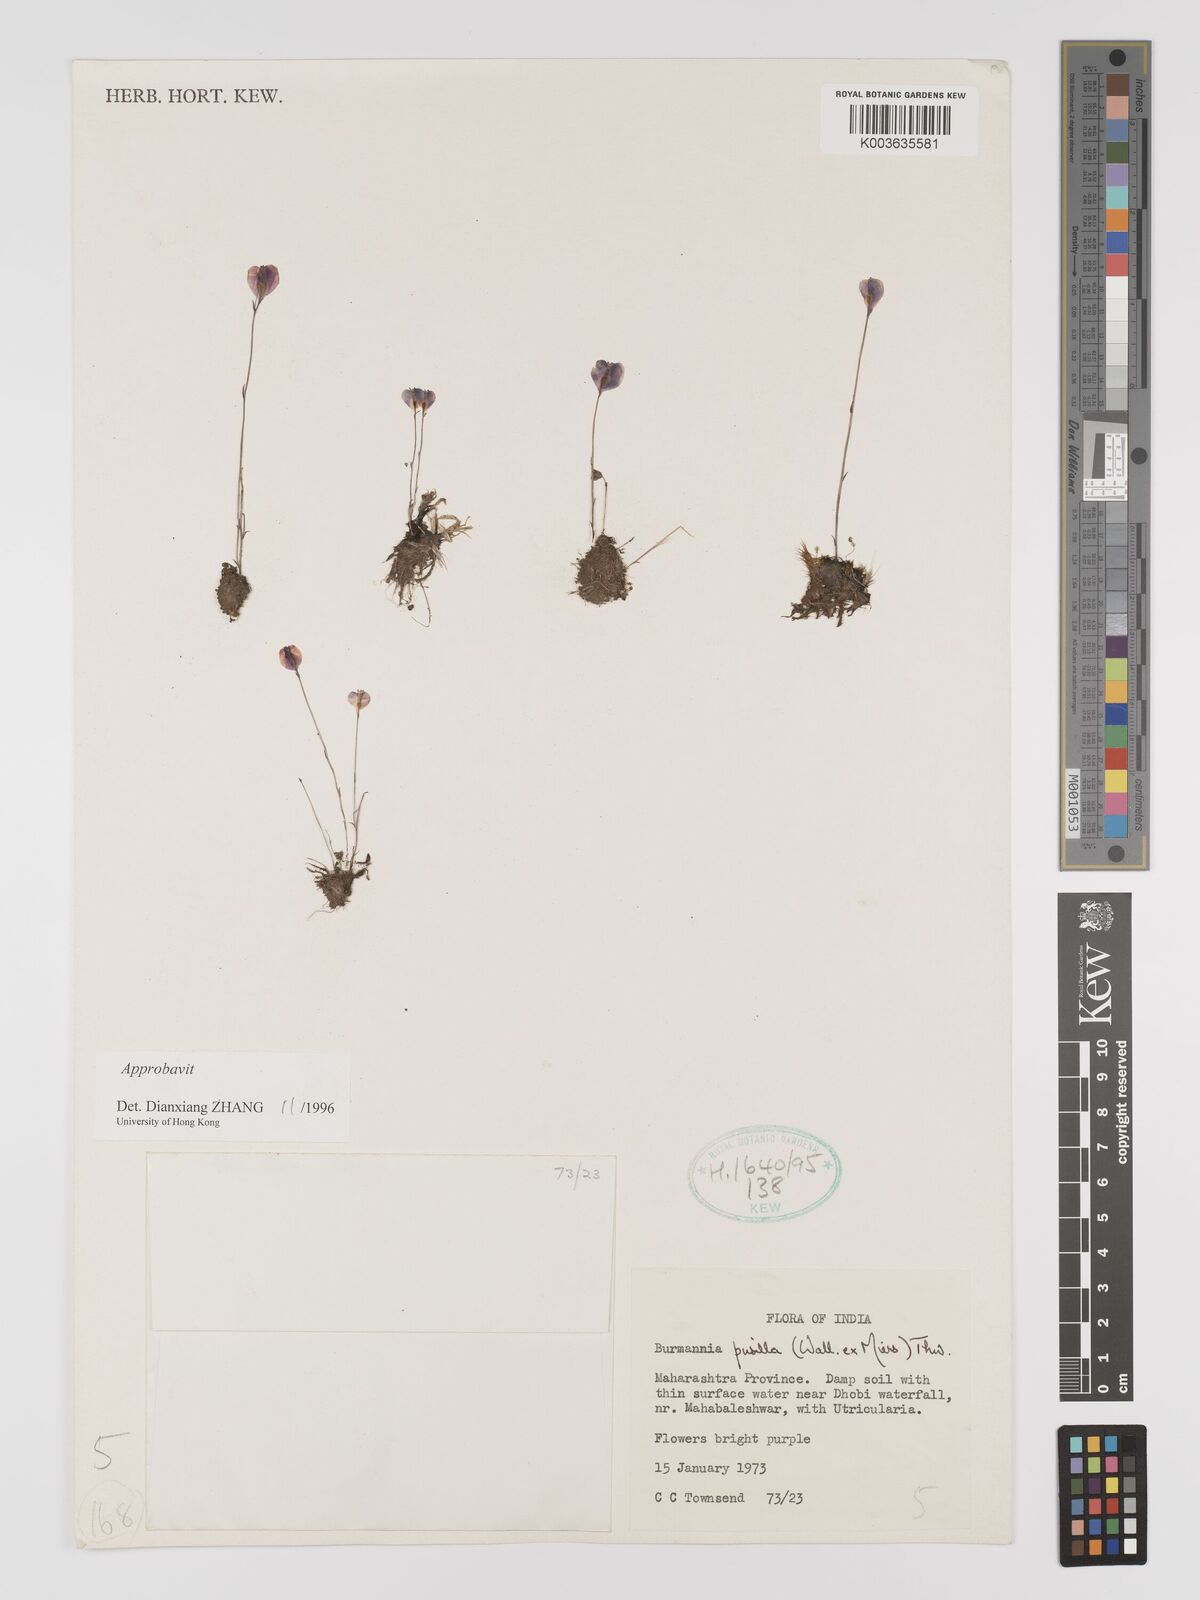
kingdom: Plantae
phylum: Tracheophyta
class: Liliopsida
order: Dioscoreales
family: Burmanniaceae
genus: Burmannia
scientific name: Burmannia pusilla
